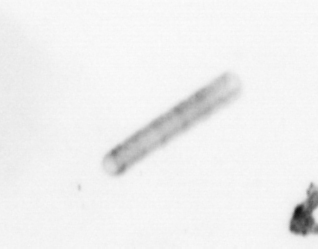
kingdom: Chromista
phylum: Ochrophyta
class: Bacillariophyceae
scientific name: Bacillariophyceae
